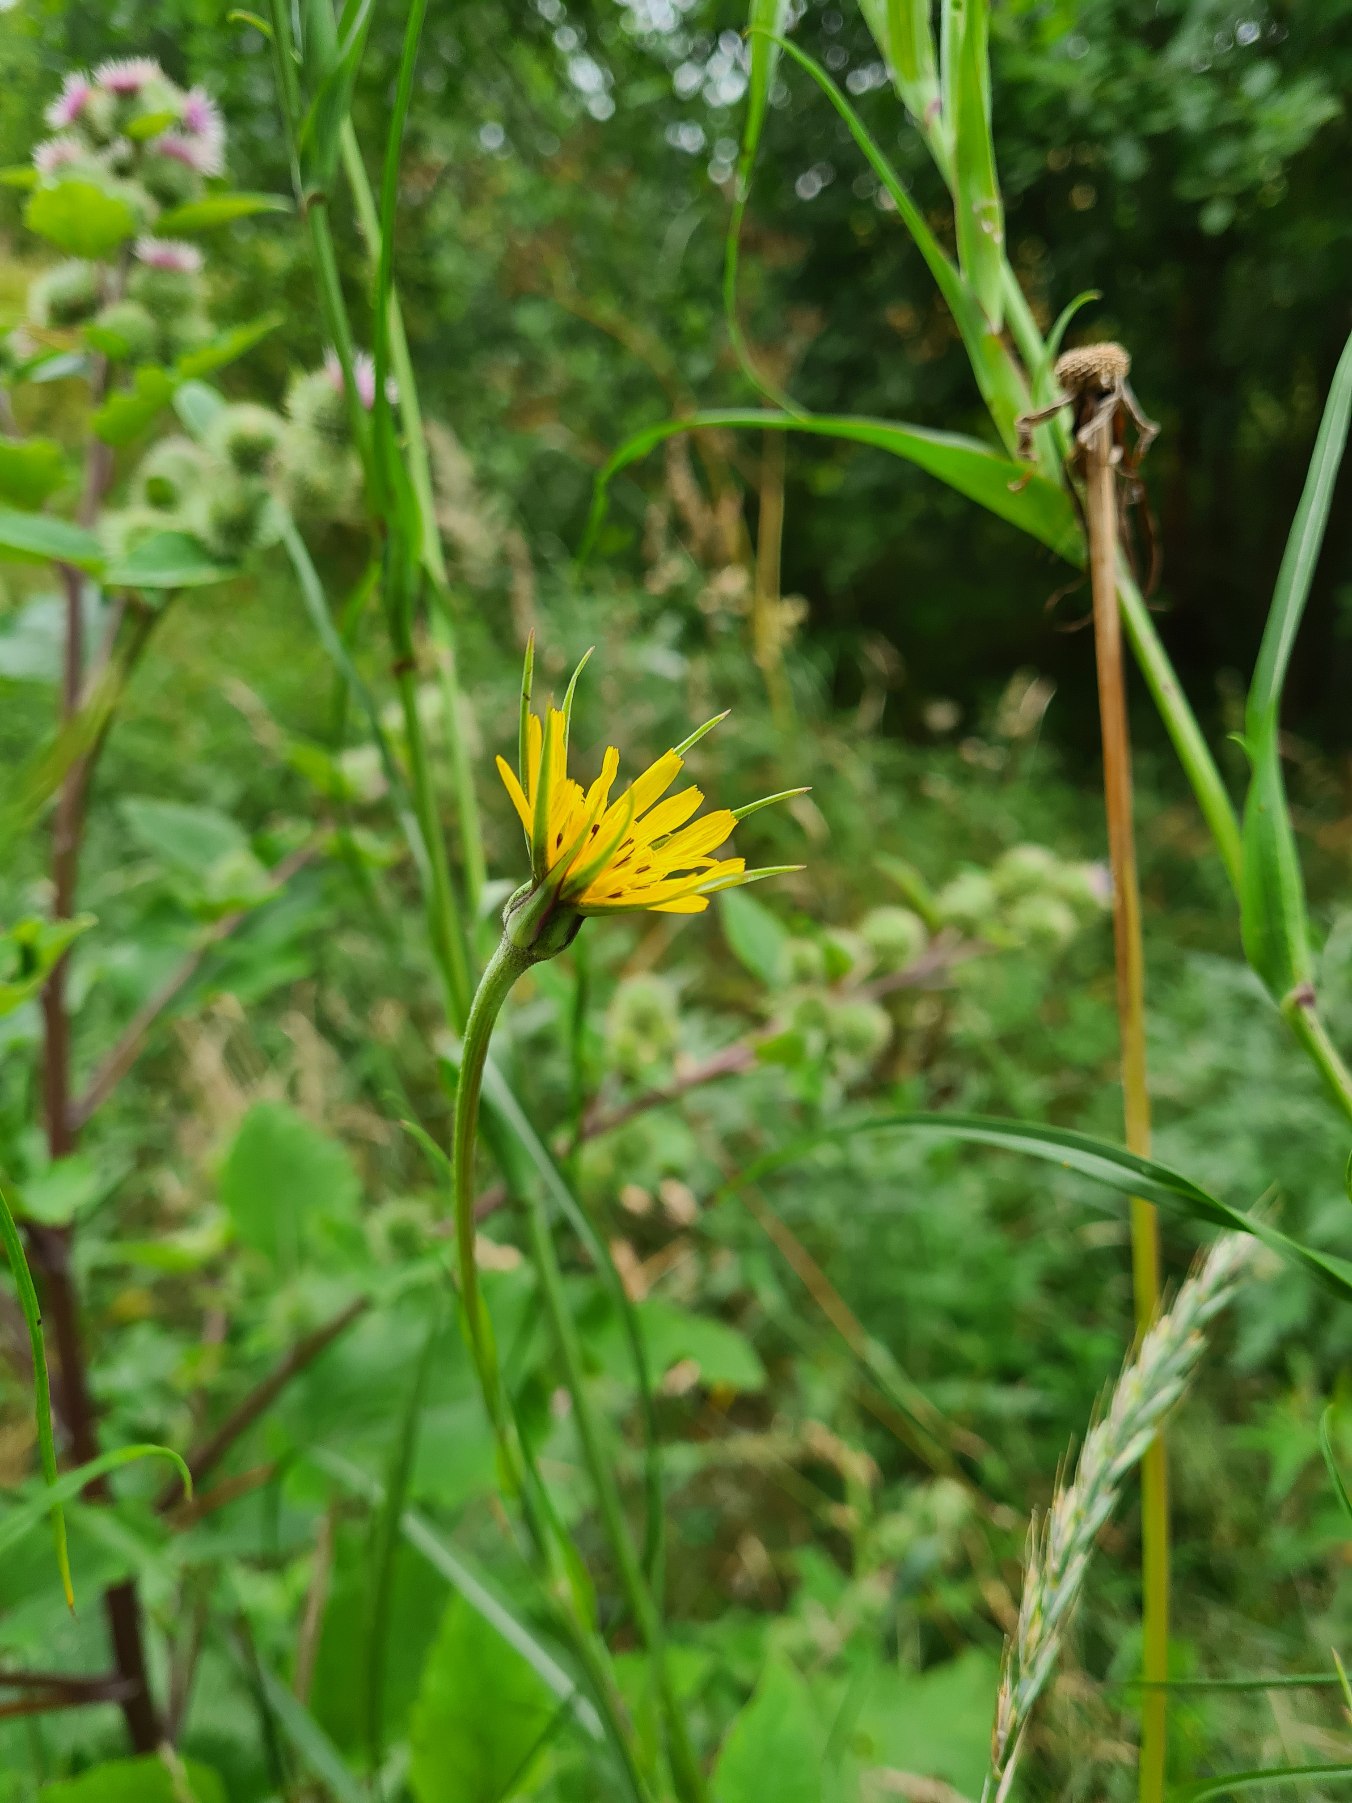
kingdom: Plantae
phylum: Tracheophyta
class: Magnoliopsida
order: Asterales
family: Asteraceae
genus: Tragopogon
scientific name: Tragopogon minor
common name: Småkronet gedeskæg
